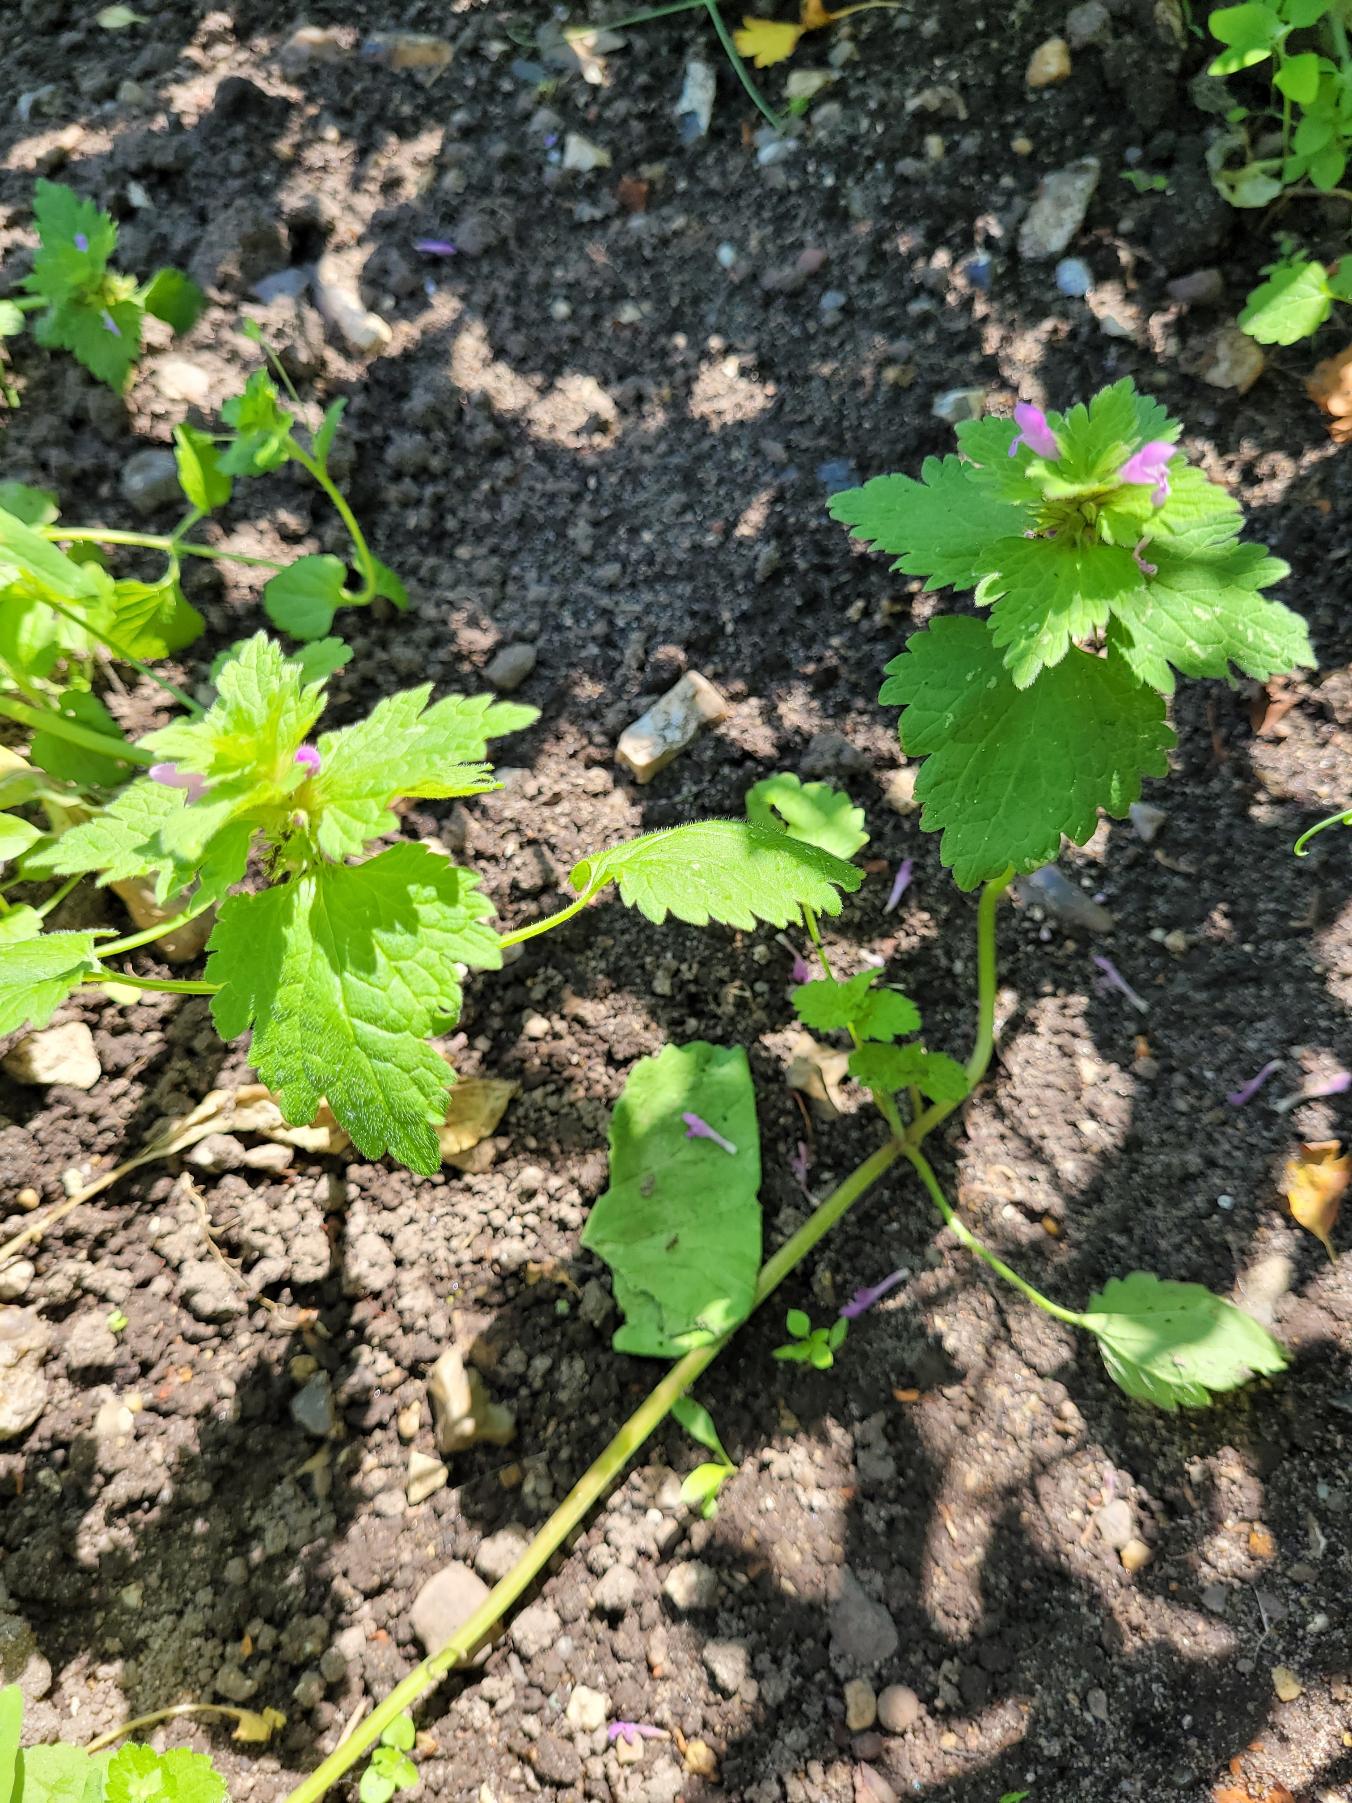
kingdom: Plantae
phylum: Tracheophyta
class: Magnoliopsida
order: Lamiales
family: Lamiaceae
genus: Lamium
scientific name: Lamium hybridum
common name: Fliget tvetand
